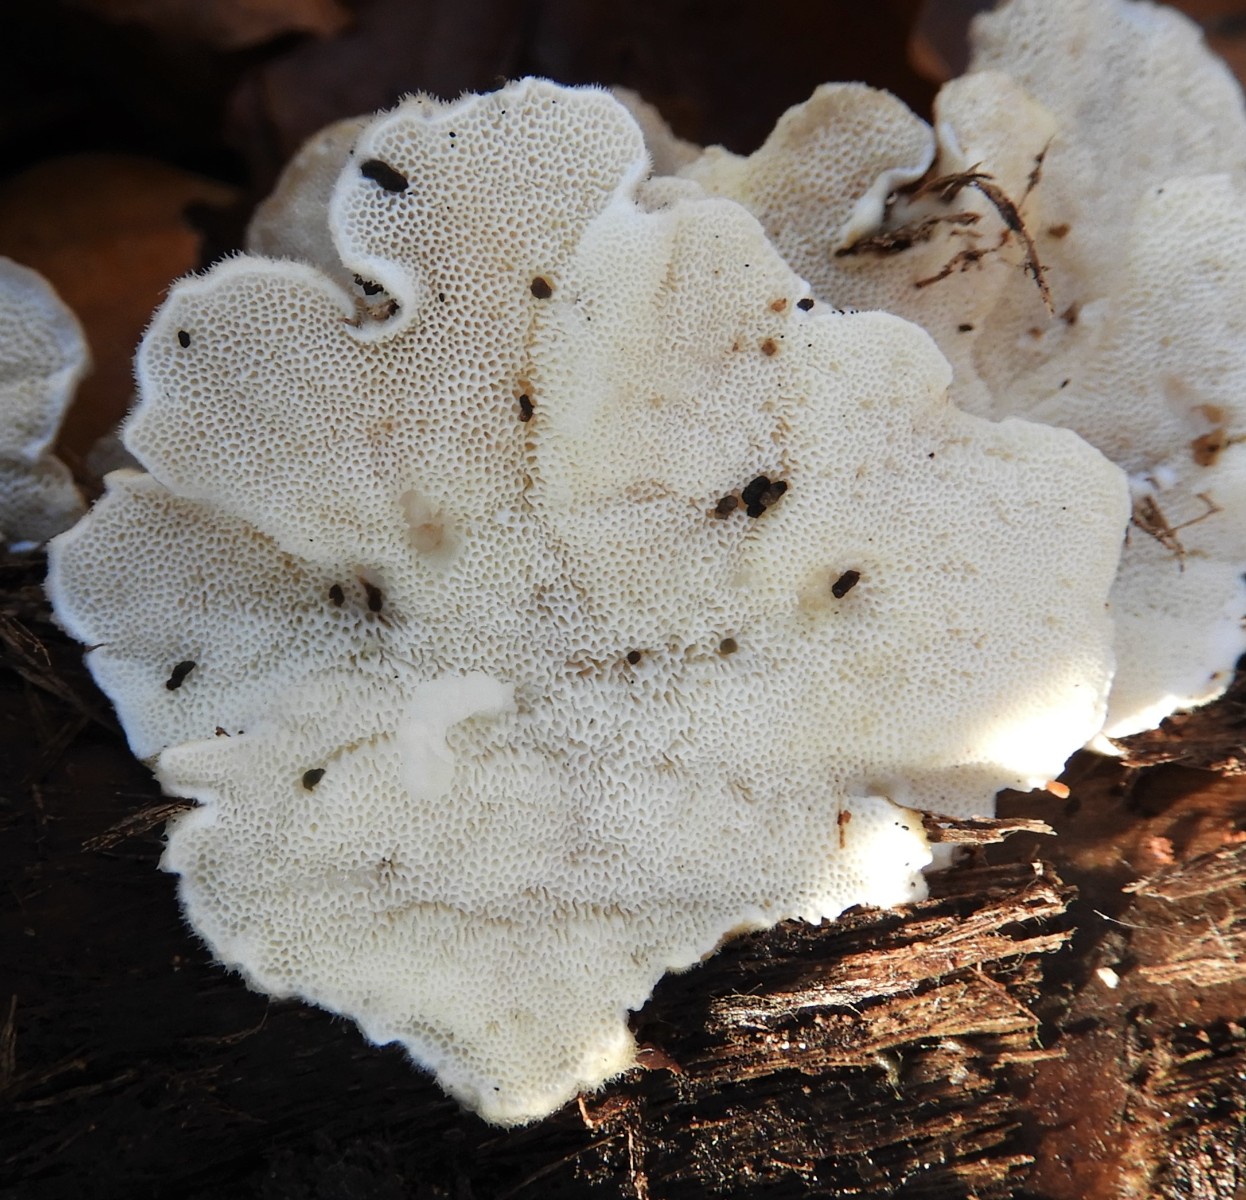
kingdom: Fungi
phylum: Basidiomycota
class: Agaricomycetes
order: Polyporales
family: Polyporaceae
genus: Trametes
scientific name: Trametes ochracea
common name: bæltet læderporesvamp
